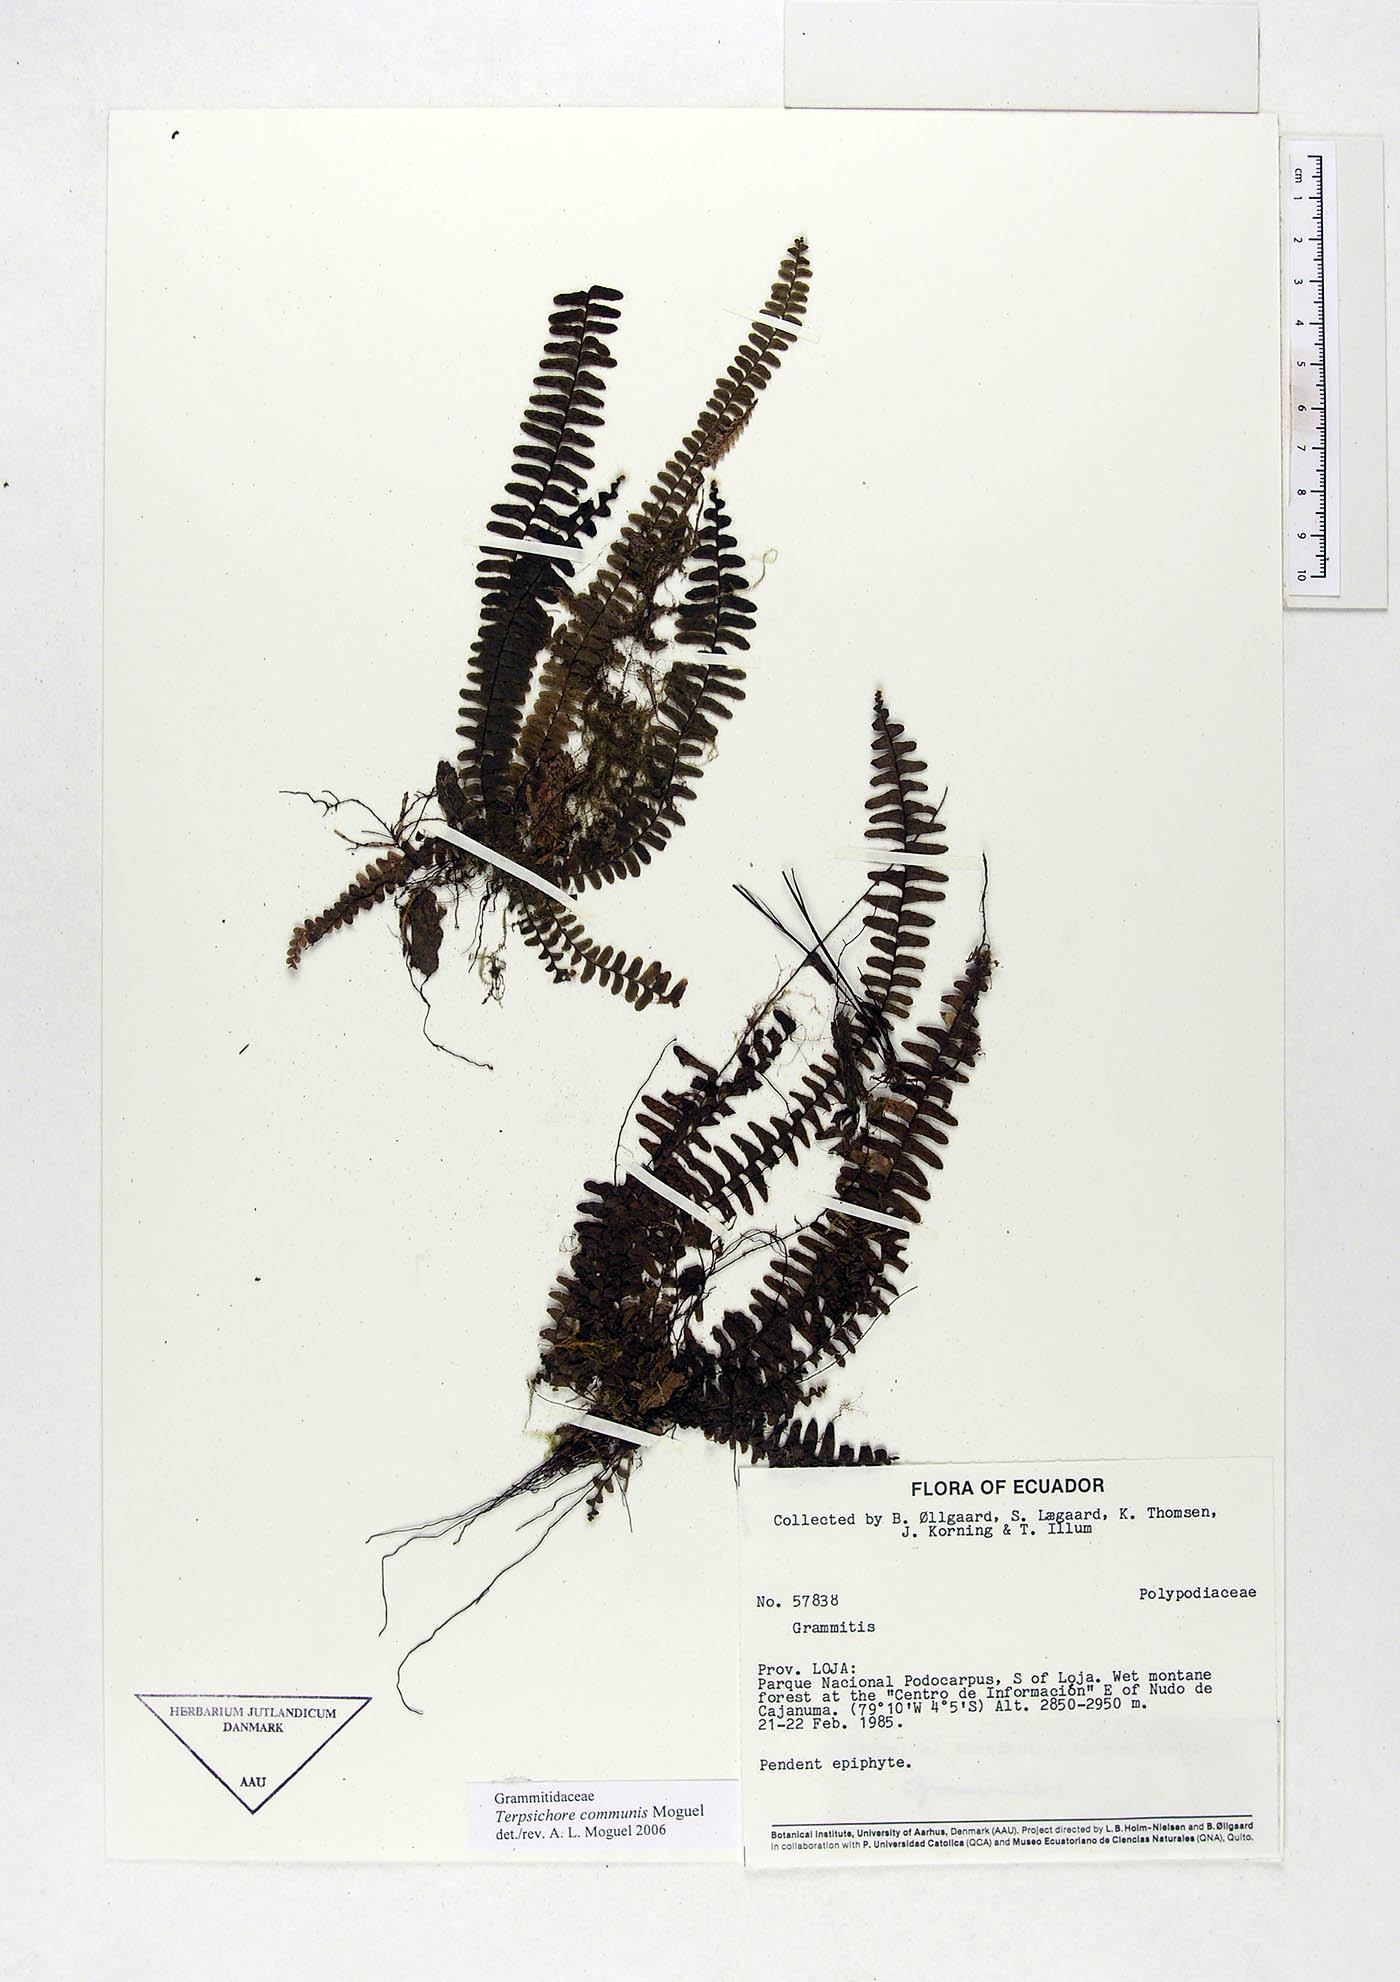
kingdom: Plantae
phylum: Tracheophyta
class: Polypodiopsida
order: Polypodiales
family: Polypodiaceae
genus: Terpsichore
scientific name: Terpsichore communis
